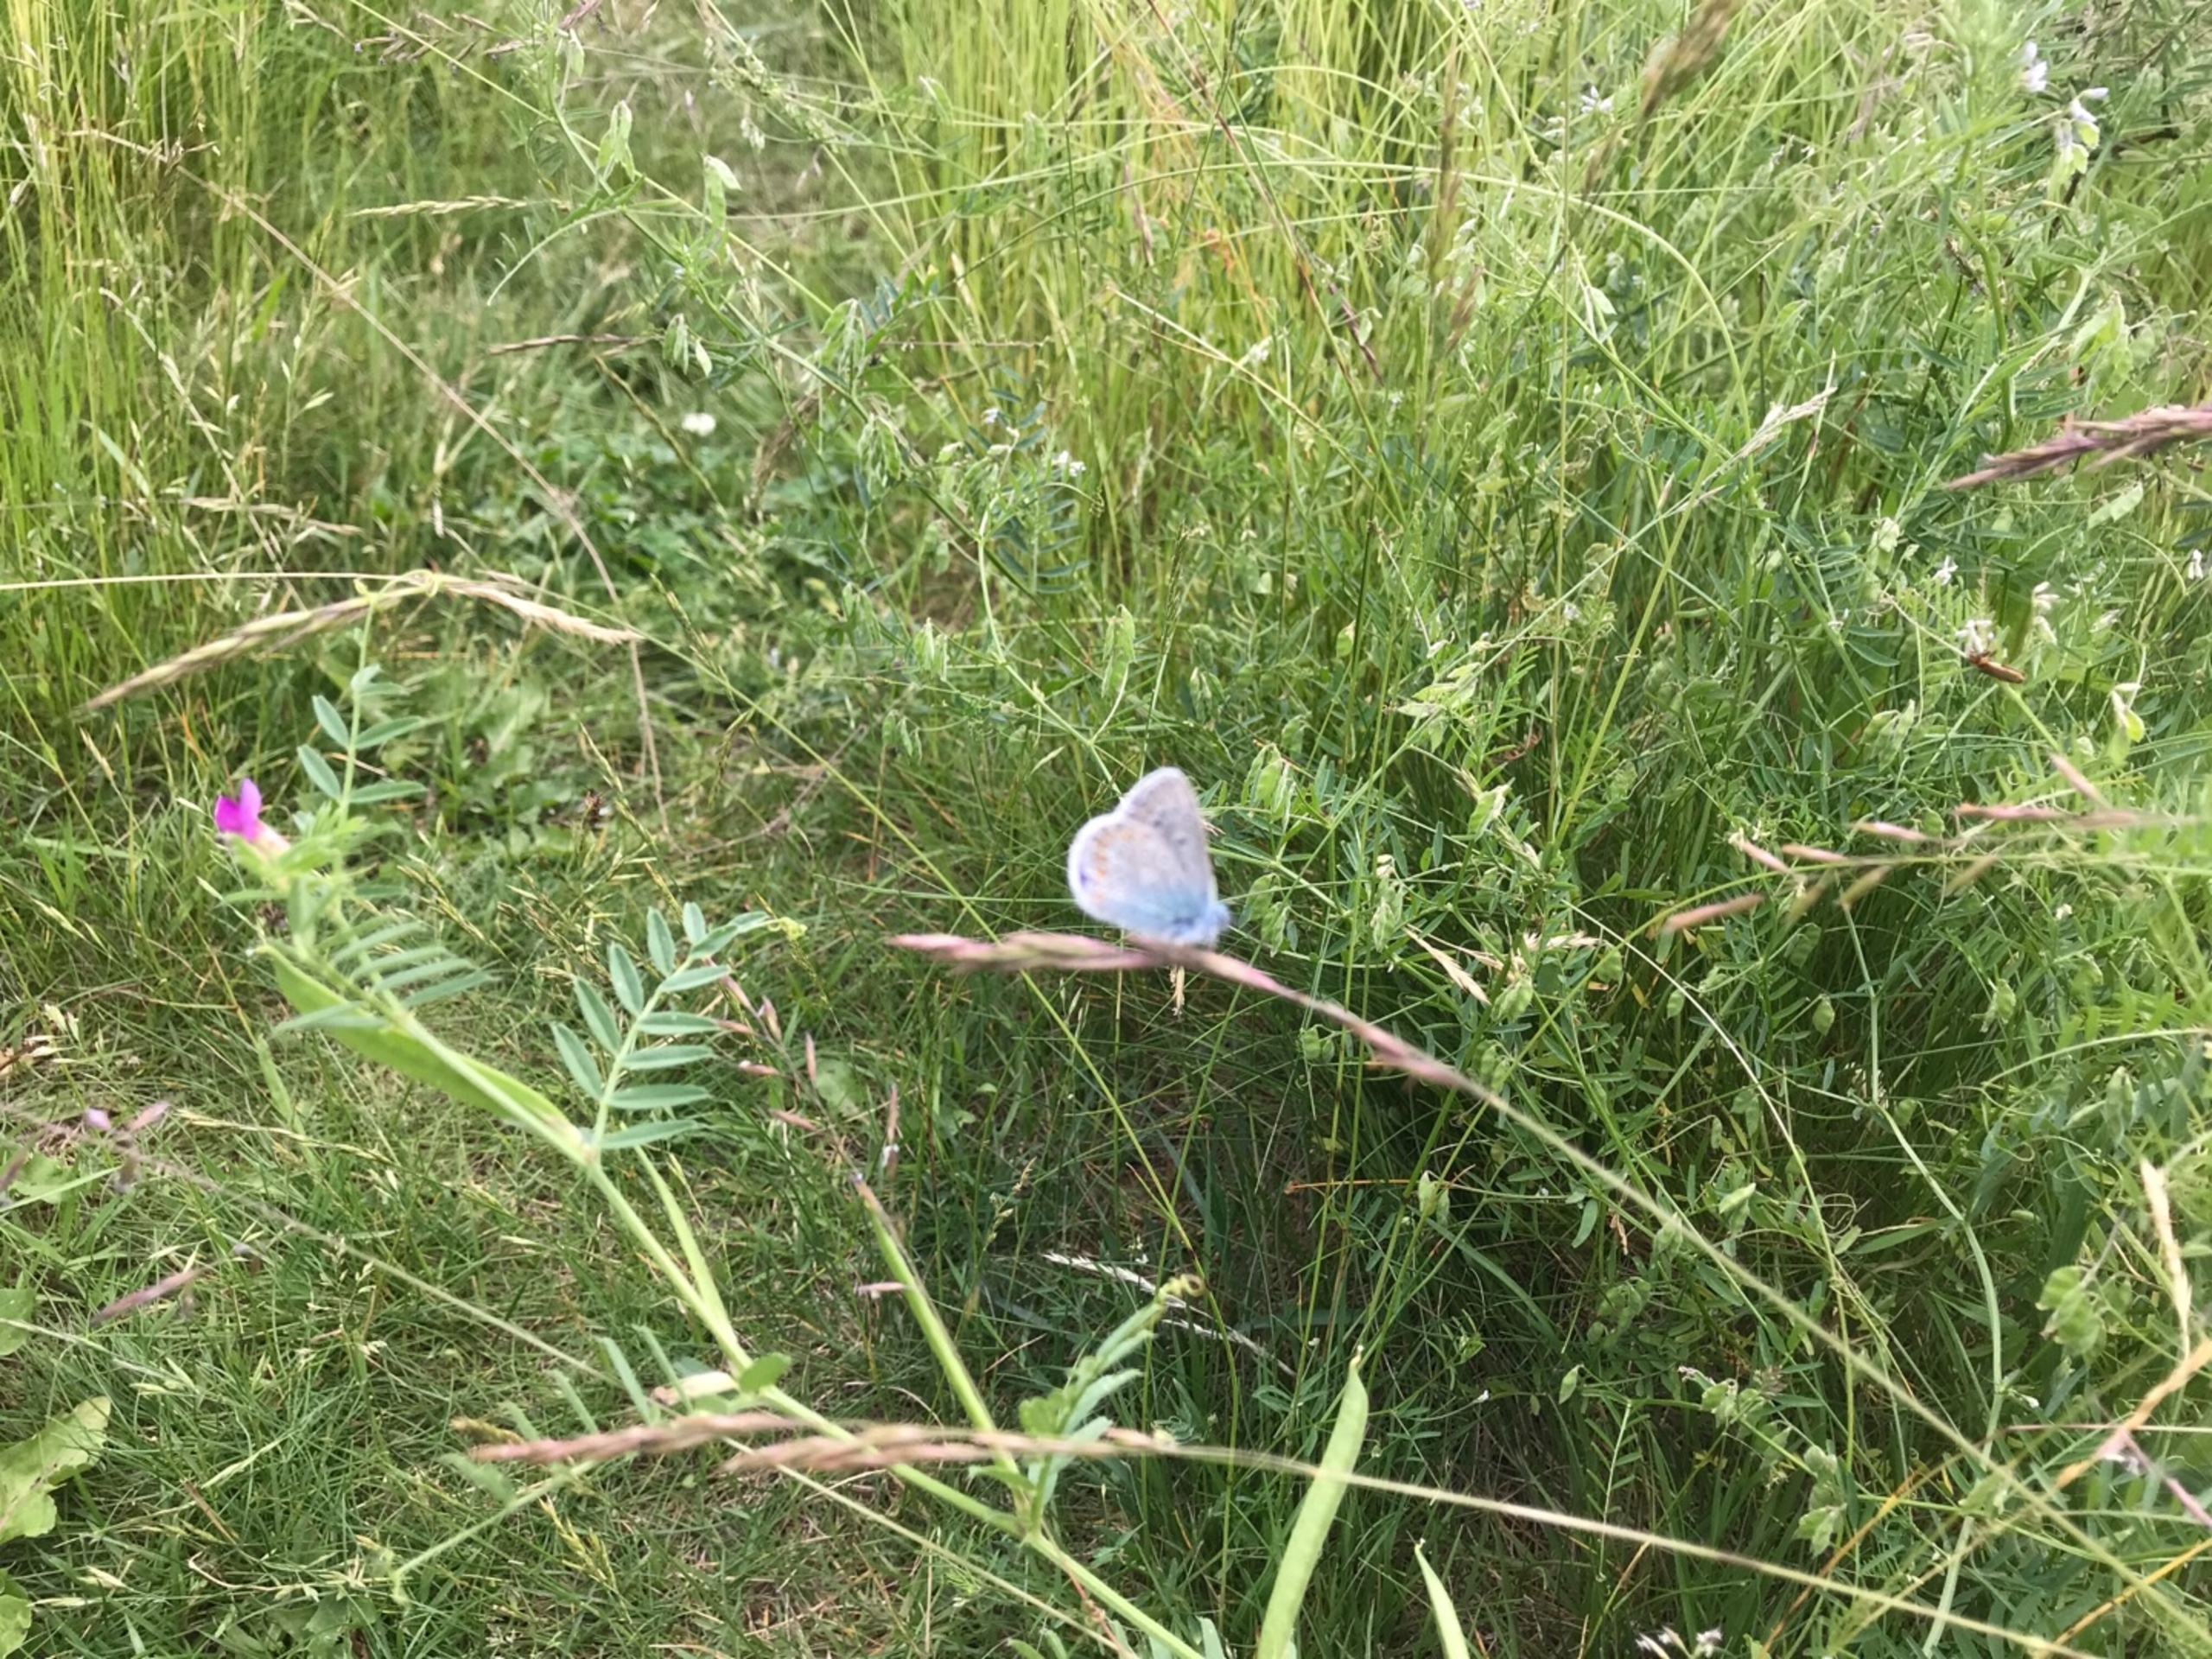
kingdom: Animalia
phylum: Arthropoda
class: Insecta
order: Lepidoptera
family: Lycaenidae
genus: Polyommatus
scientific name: Polyommatus icarus
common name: Almindelig blåfugl
